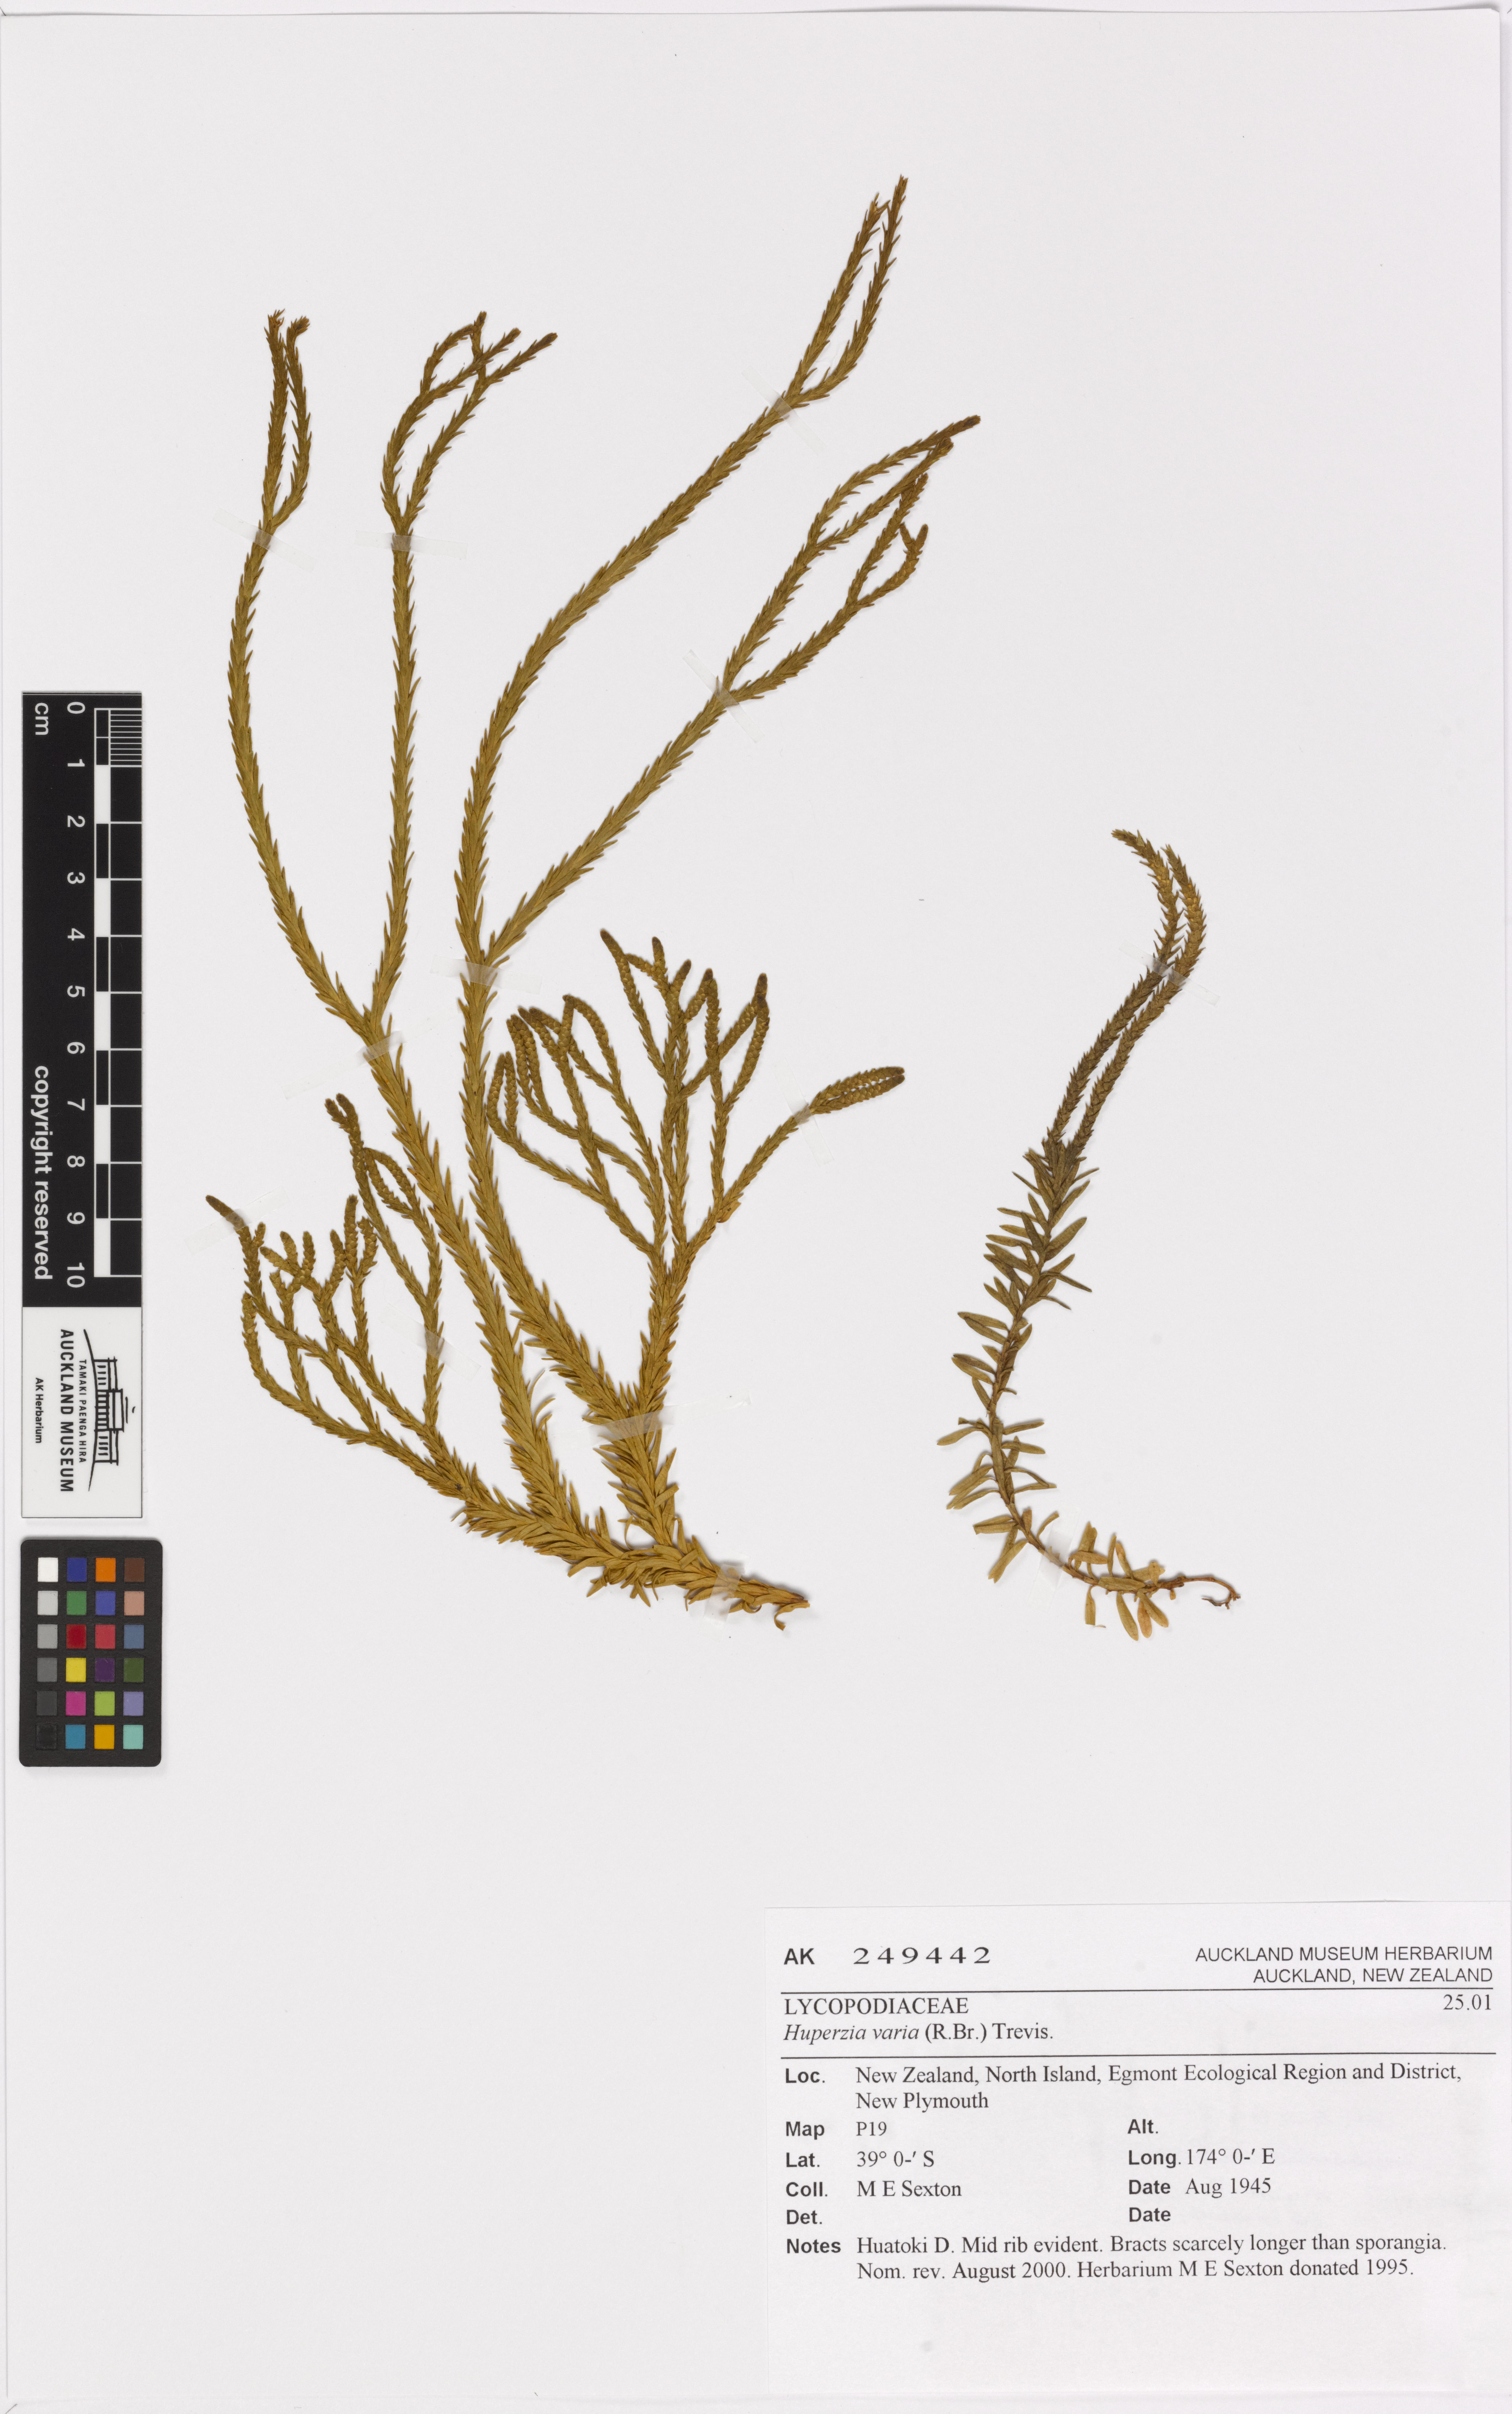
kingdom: Plantae
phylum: Tracheophyta
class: Lycopodiopsida
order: Lycopodiales
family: Lycopodiaceae
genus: Phlegmariurus
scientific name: Phlegmariurus billardierei
